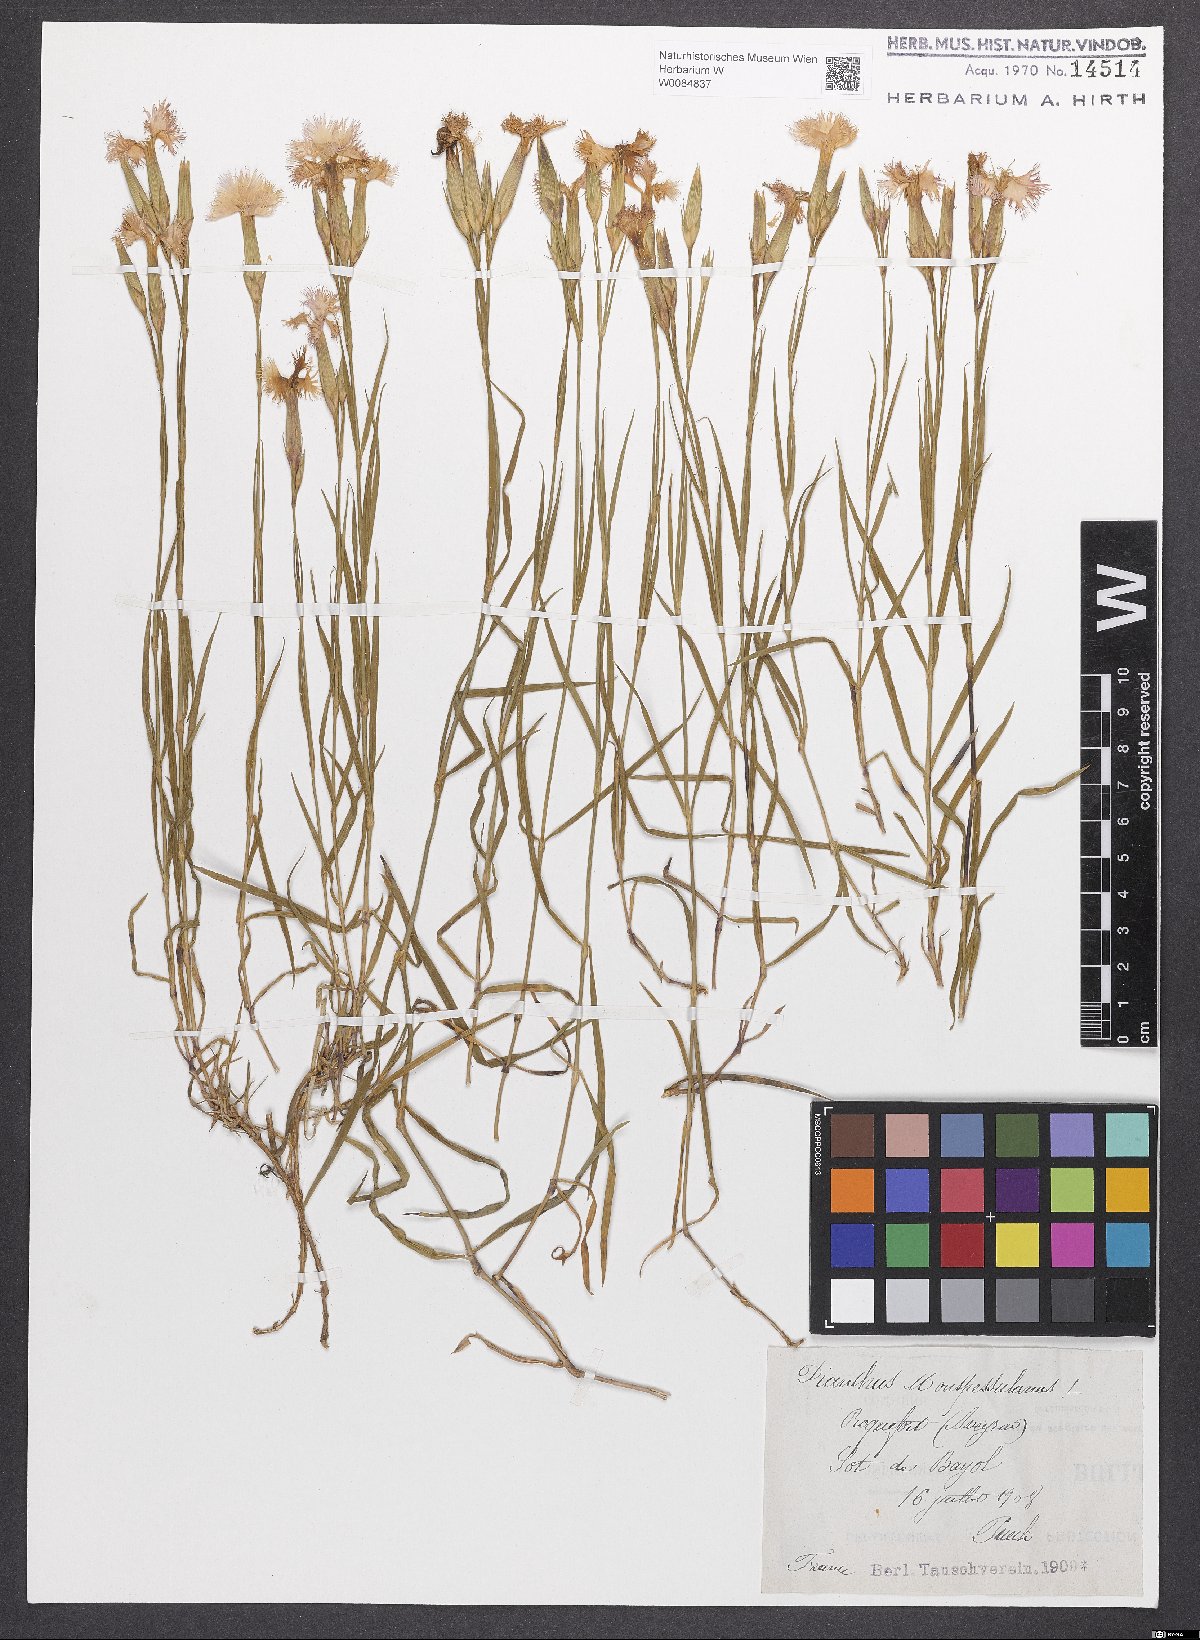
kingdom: Plantae
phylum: Tracheophyta
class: Magnoliopsida
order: Caryophyllales
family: Caryophyllaceae
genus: Dianthus
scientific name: Dianthus hyssopifolius
